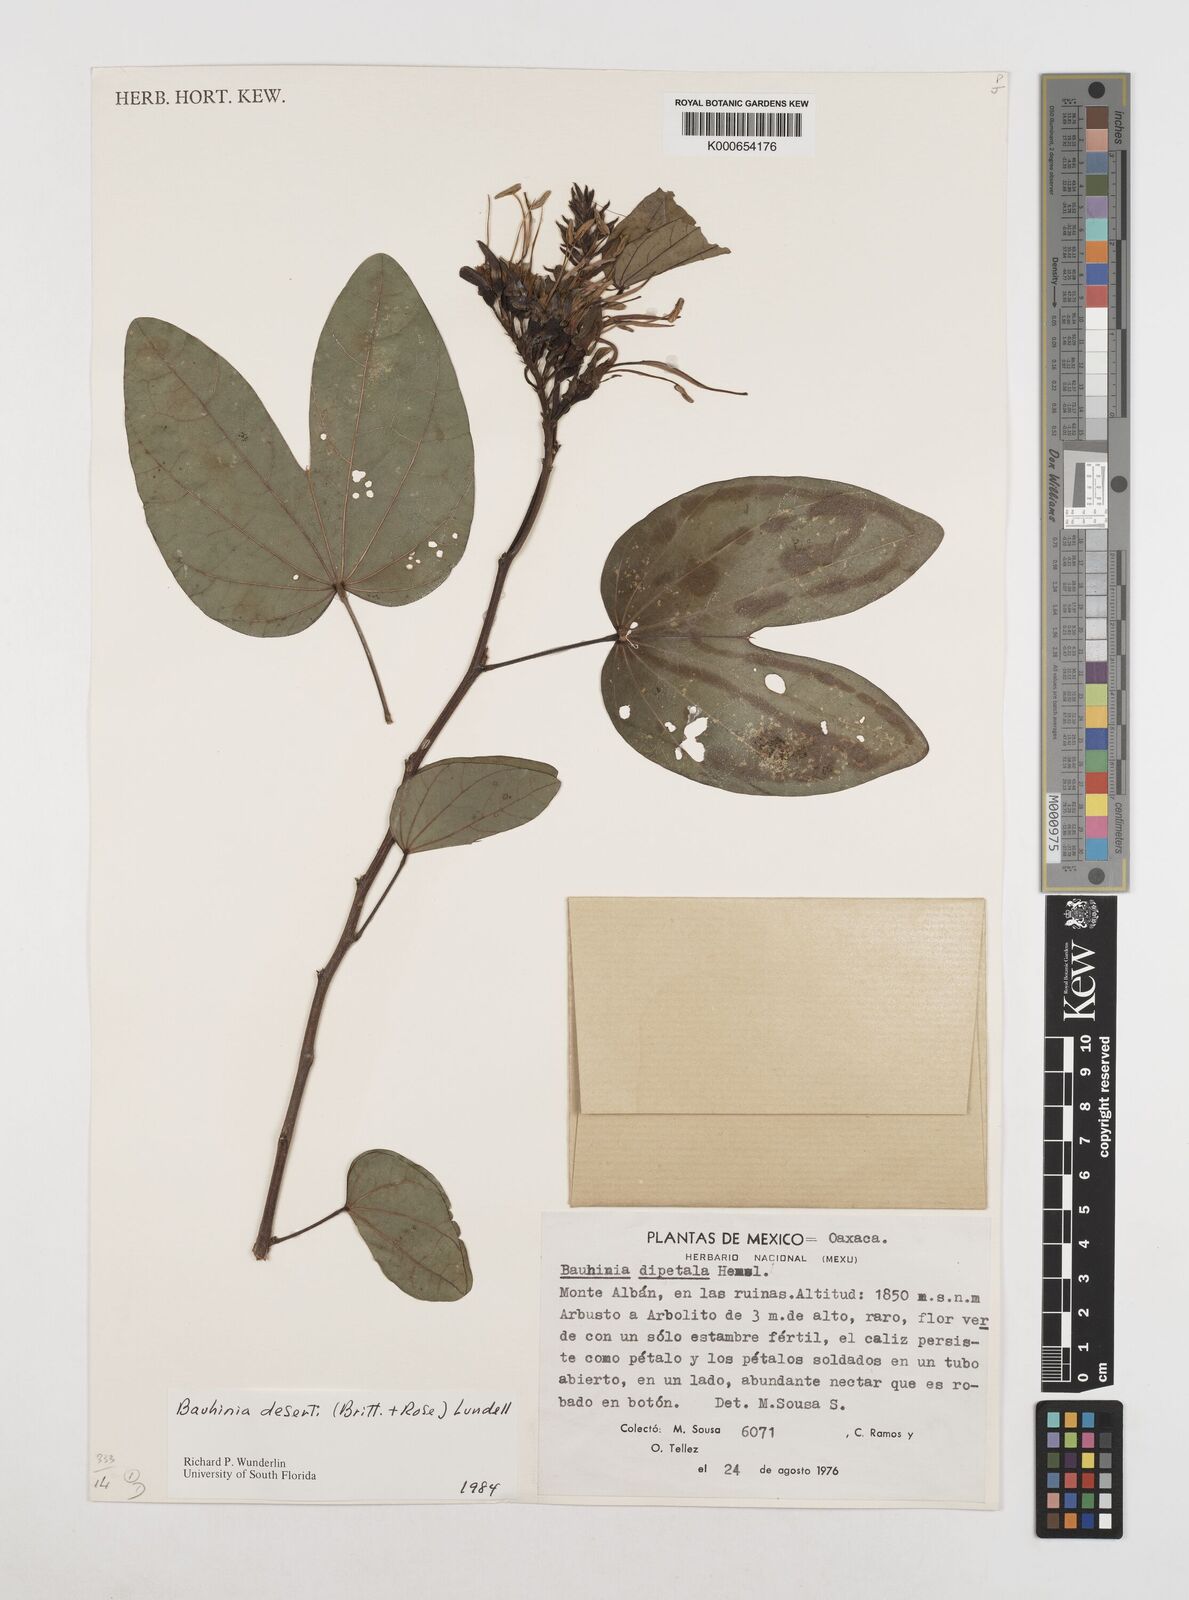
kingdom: Plantae
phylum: Tracheophyta
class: Magnoliopsida
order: Fabales
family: Fabaceae
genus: Bauhinia
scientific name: Bauhinia deserti
